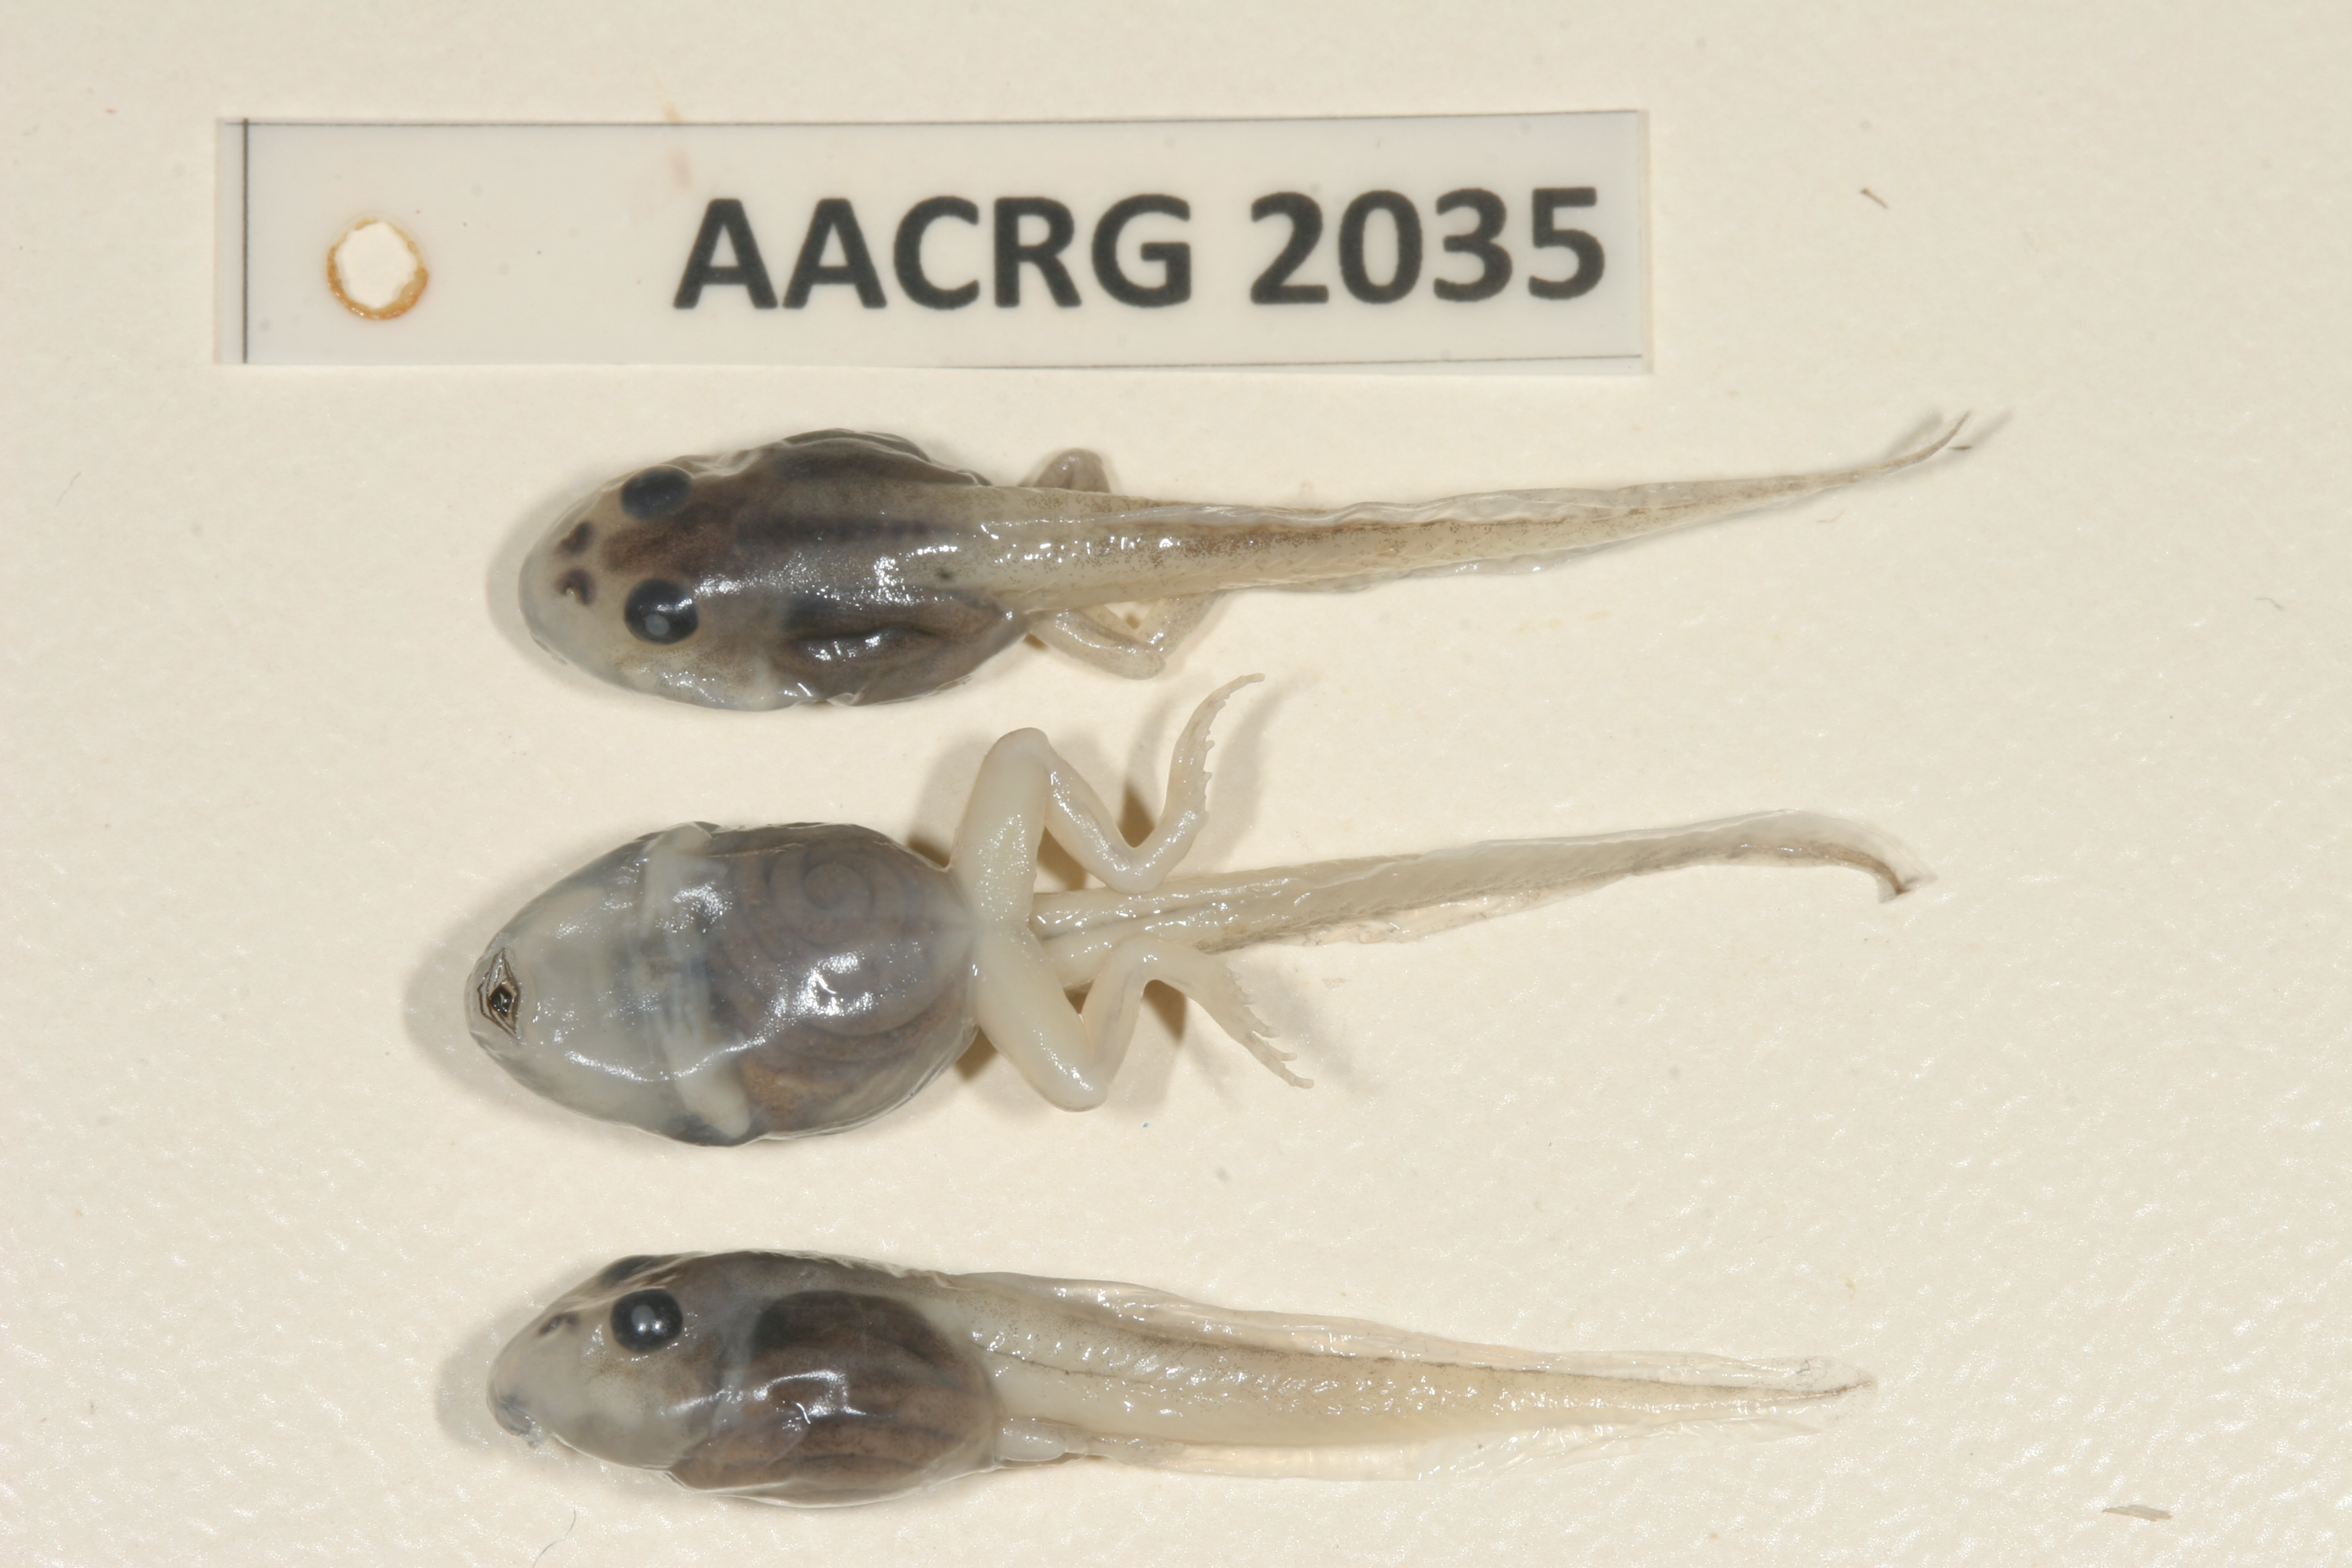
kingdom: Animalia
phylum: Chordata
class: Amphibia
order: Anura
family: Pyxicephalidae
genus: Tomopterna
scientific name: Tomopterna natalensis
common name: Natal sand frog
